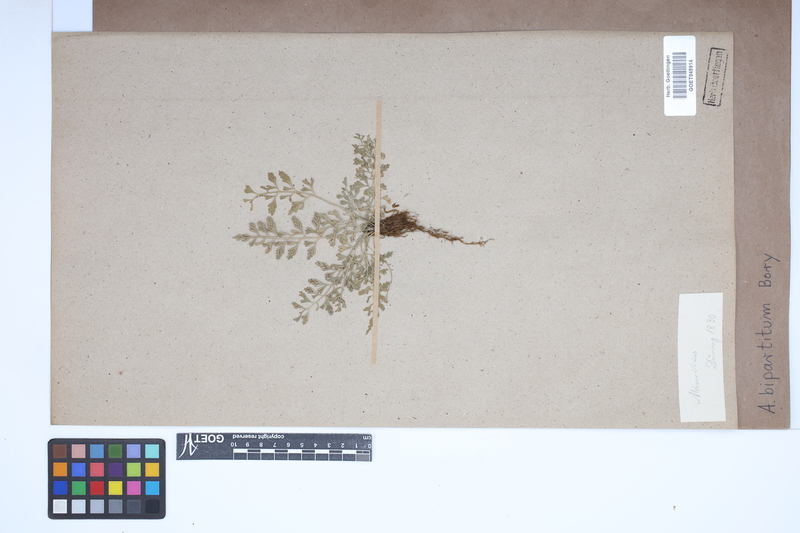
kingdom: Plantae
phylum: Tracheophyta
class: Polypodiopsida
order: Polypodiales
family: Aspleniaceae
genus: Asplenium
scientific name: Asplenium bipartitum
